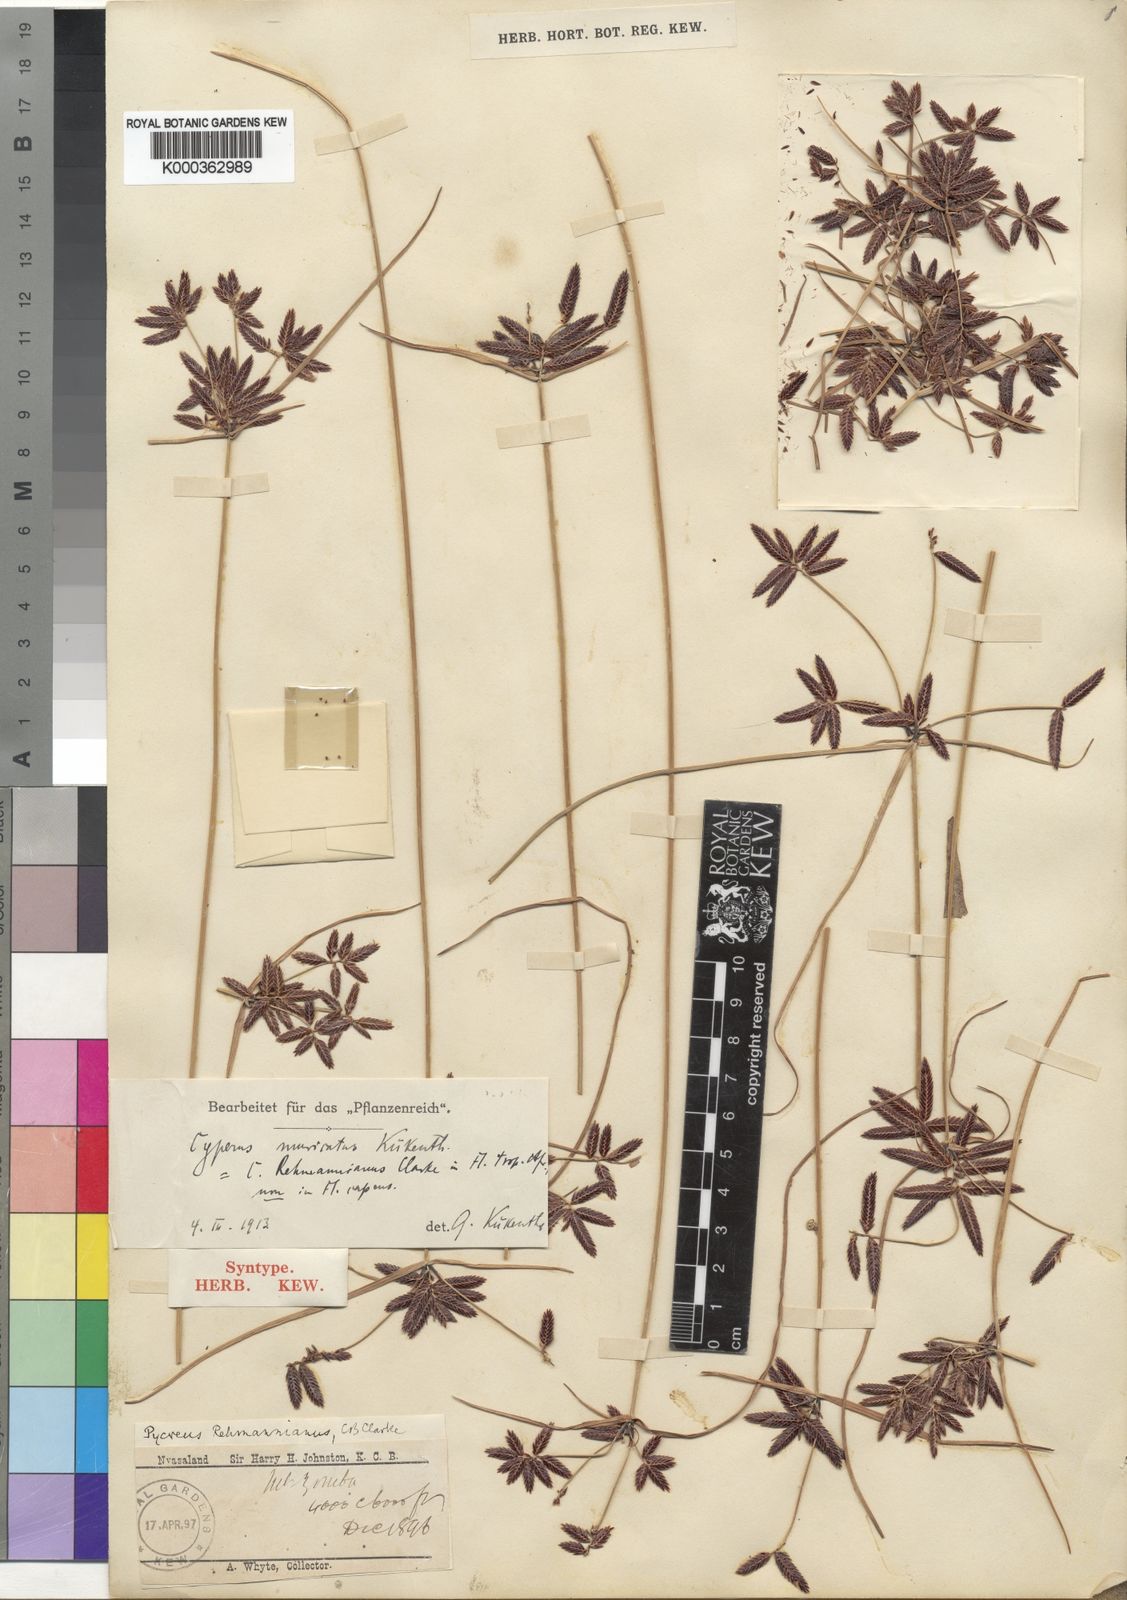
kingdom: Plantae
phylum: Tracheophyta
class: Liliopsida
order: Poales
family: Cyperaceae
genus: Cyperus
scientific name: Cyperus
